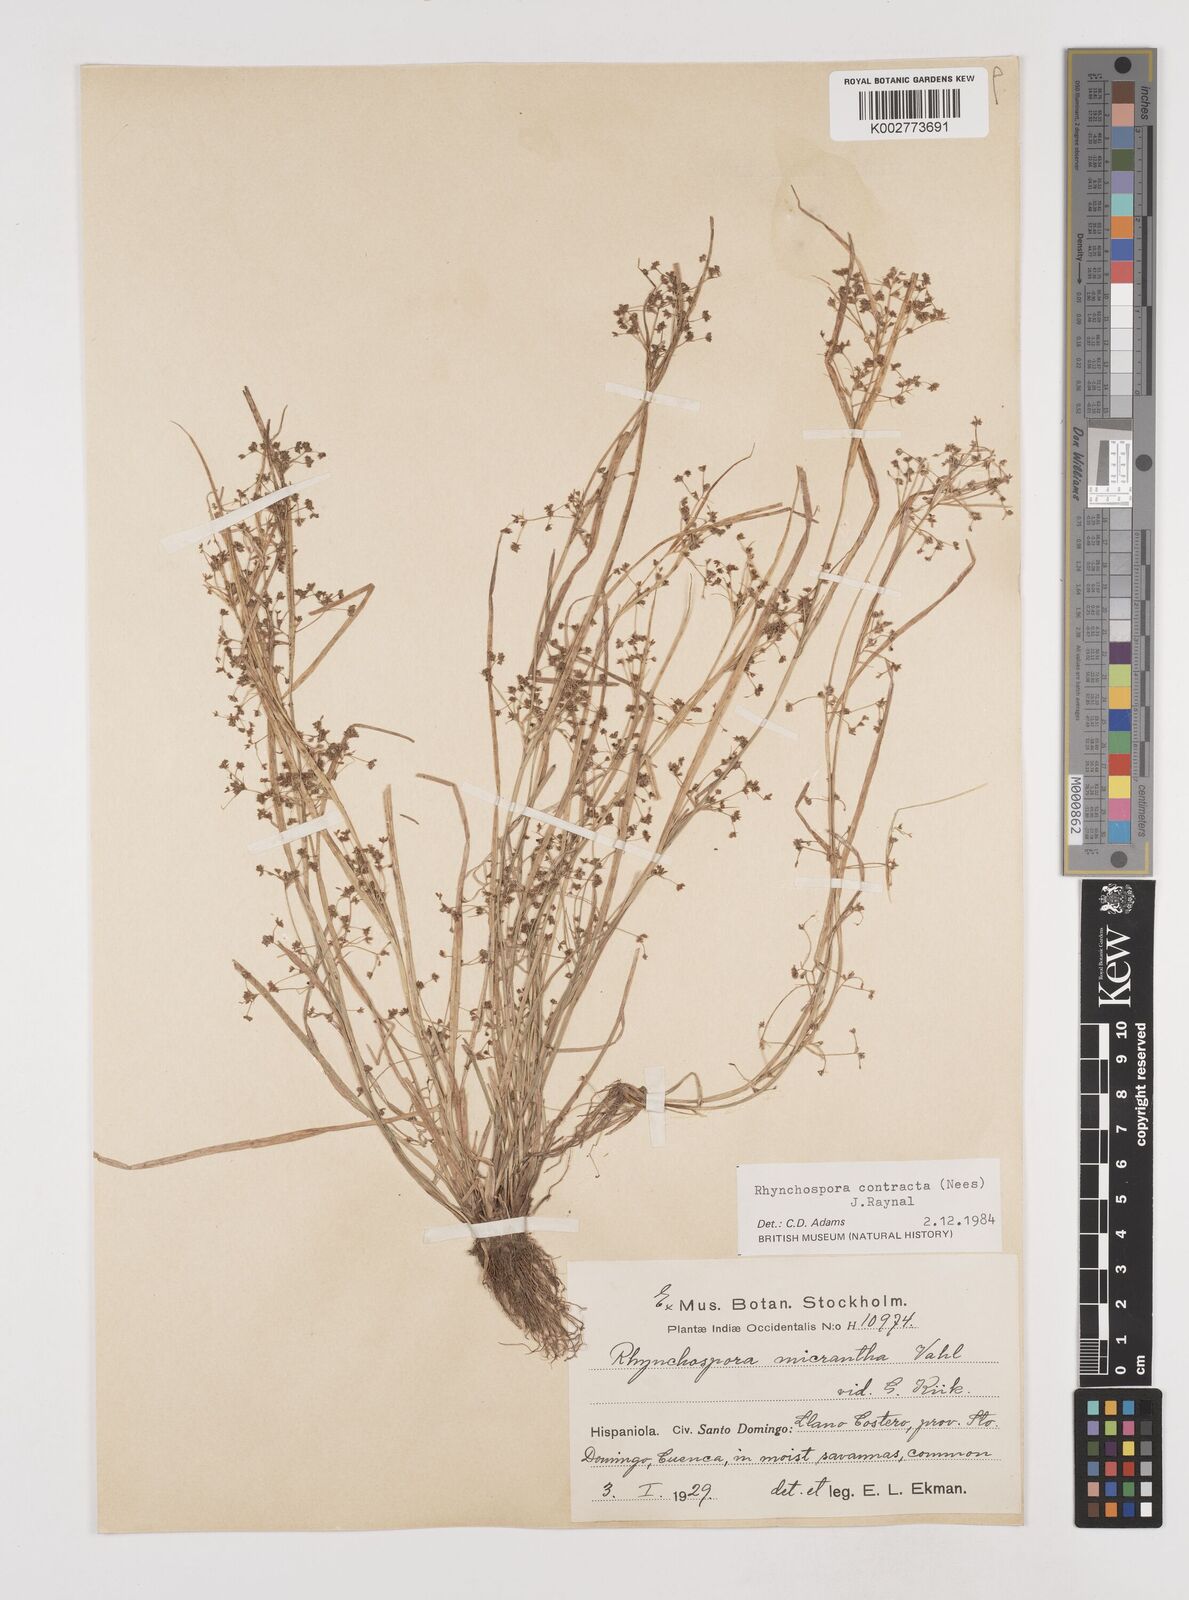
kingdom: Plantae
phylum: Tracheophyta
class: Liliopsida
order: Poales
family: Cyperaceae
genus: Rhynchospora
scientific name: Rhynchospora contracta
